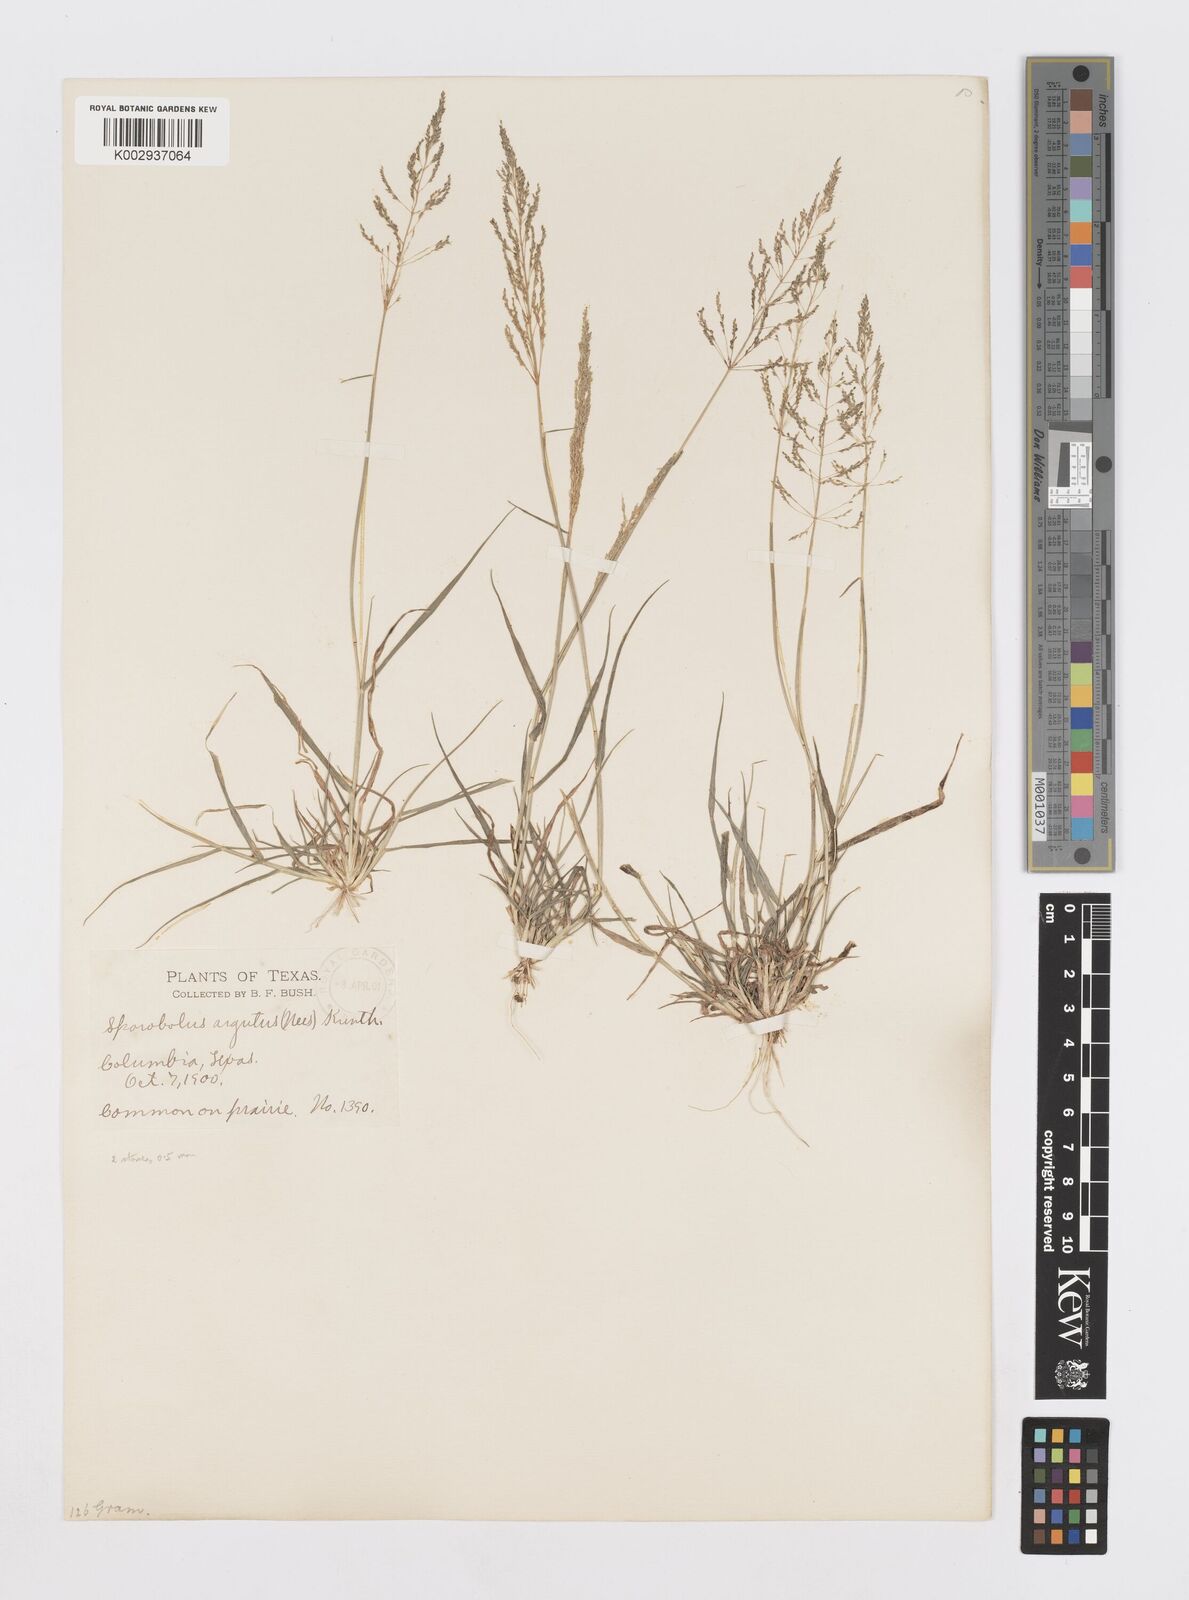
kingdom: Plantae
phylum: Tracheophyta
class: Liliopsida
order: Poales
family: Poaceae
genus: Sporobolus
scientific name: Sporobolus pyramidatus
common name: Whorled dropseed
